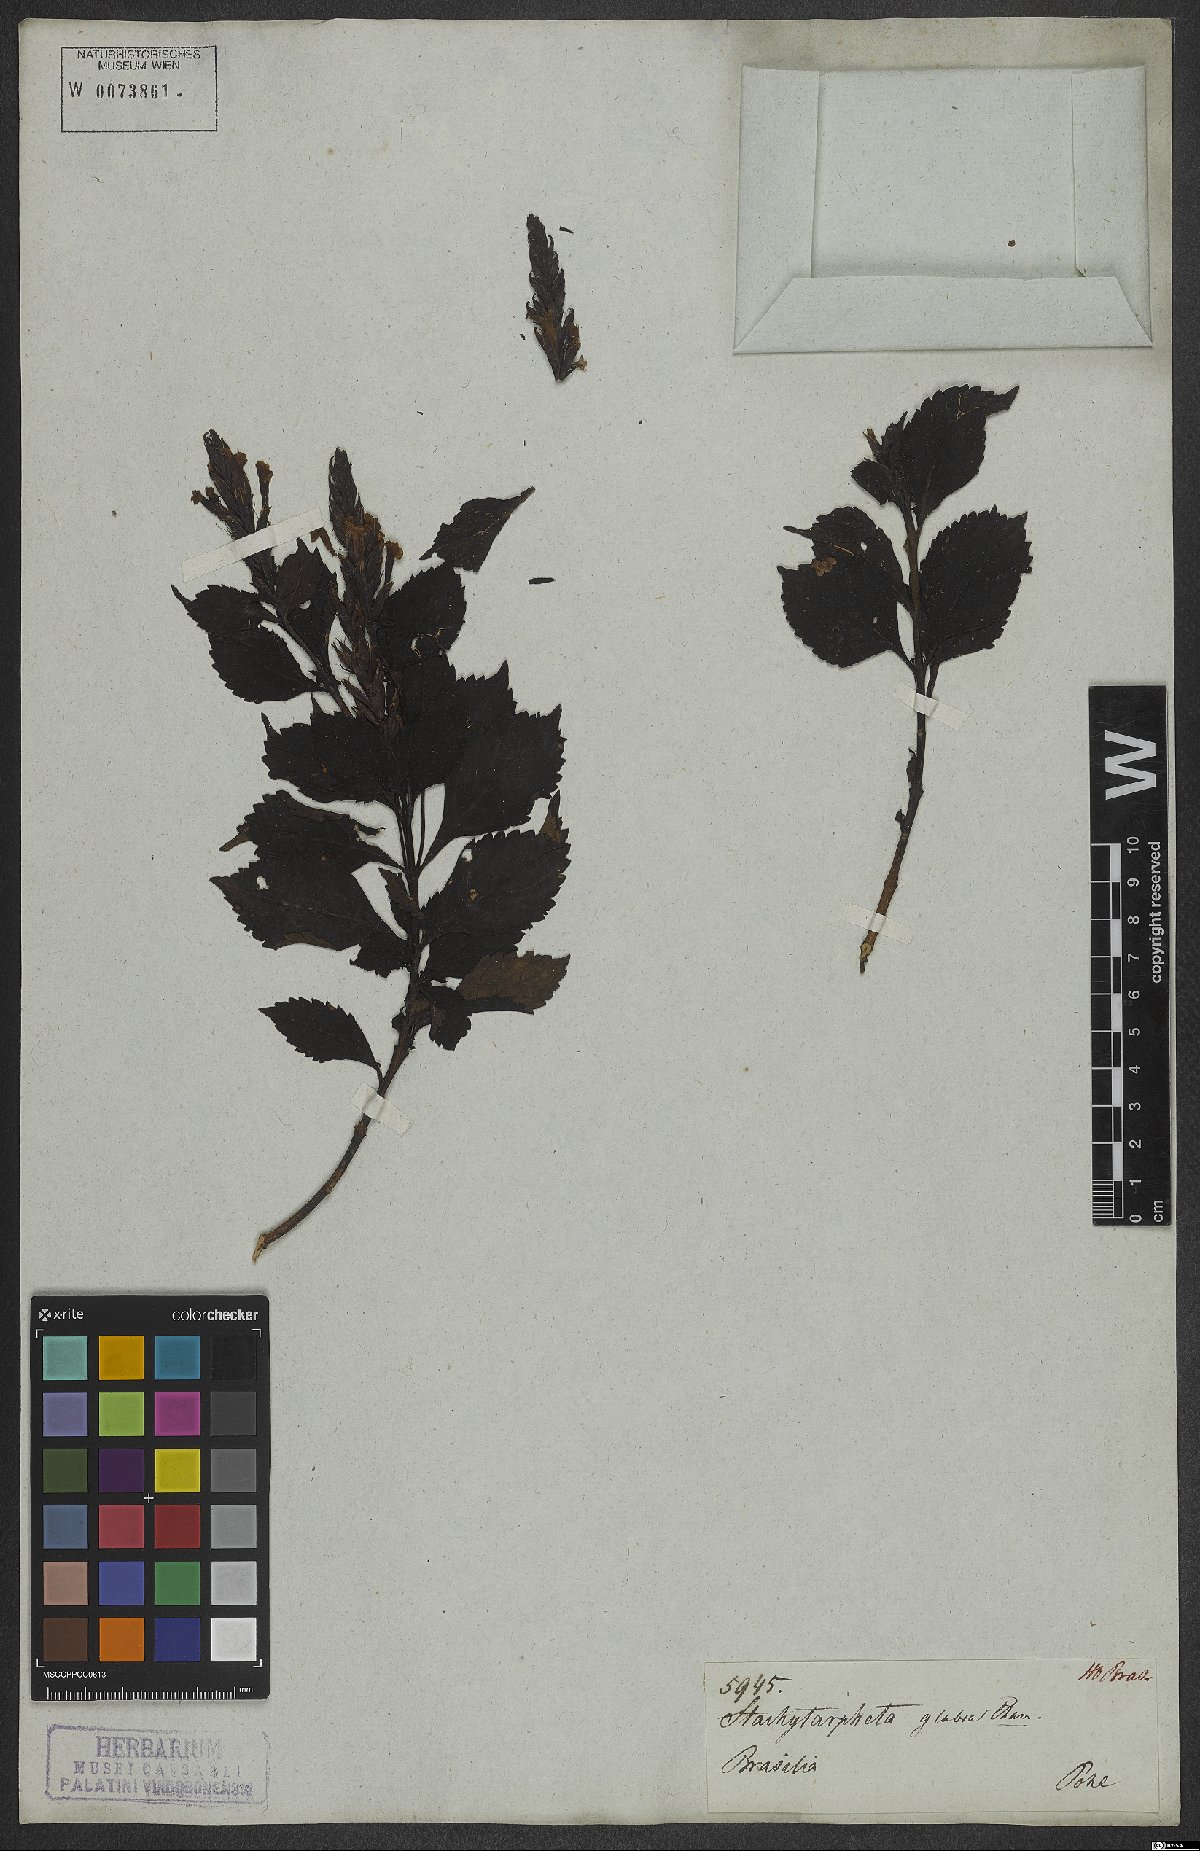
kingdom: Plantae
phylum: Tracheophyta
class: Magnoliopsida
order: Lamiales
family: Verbenaceae
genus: Stachytarpheta
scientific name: Stachytarpheta glabra
